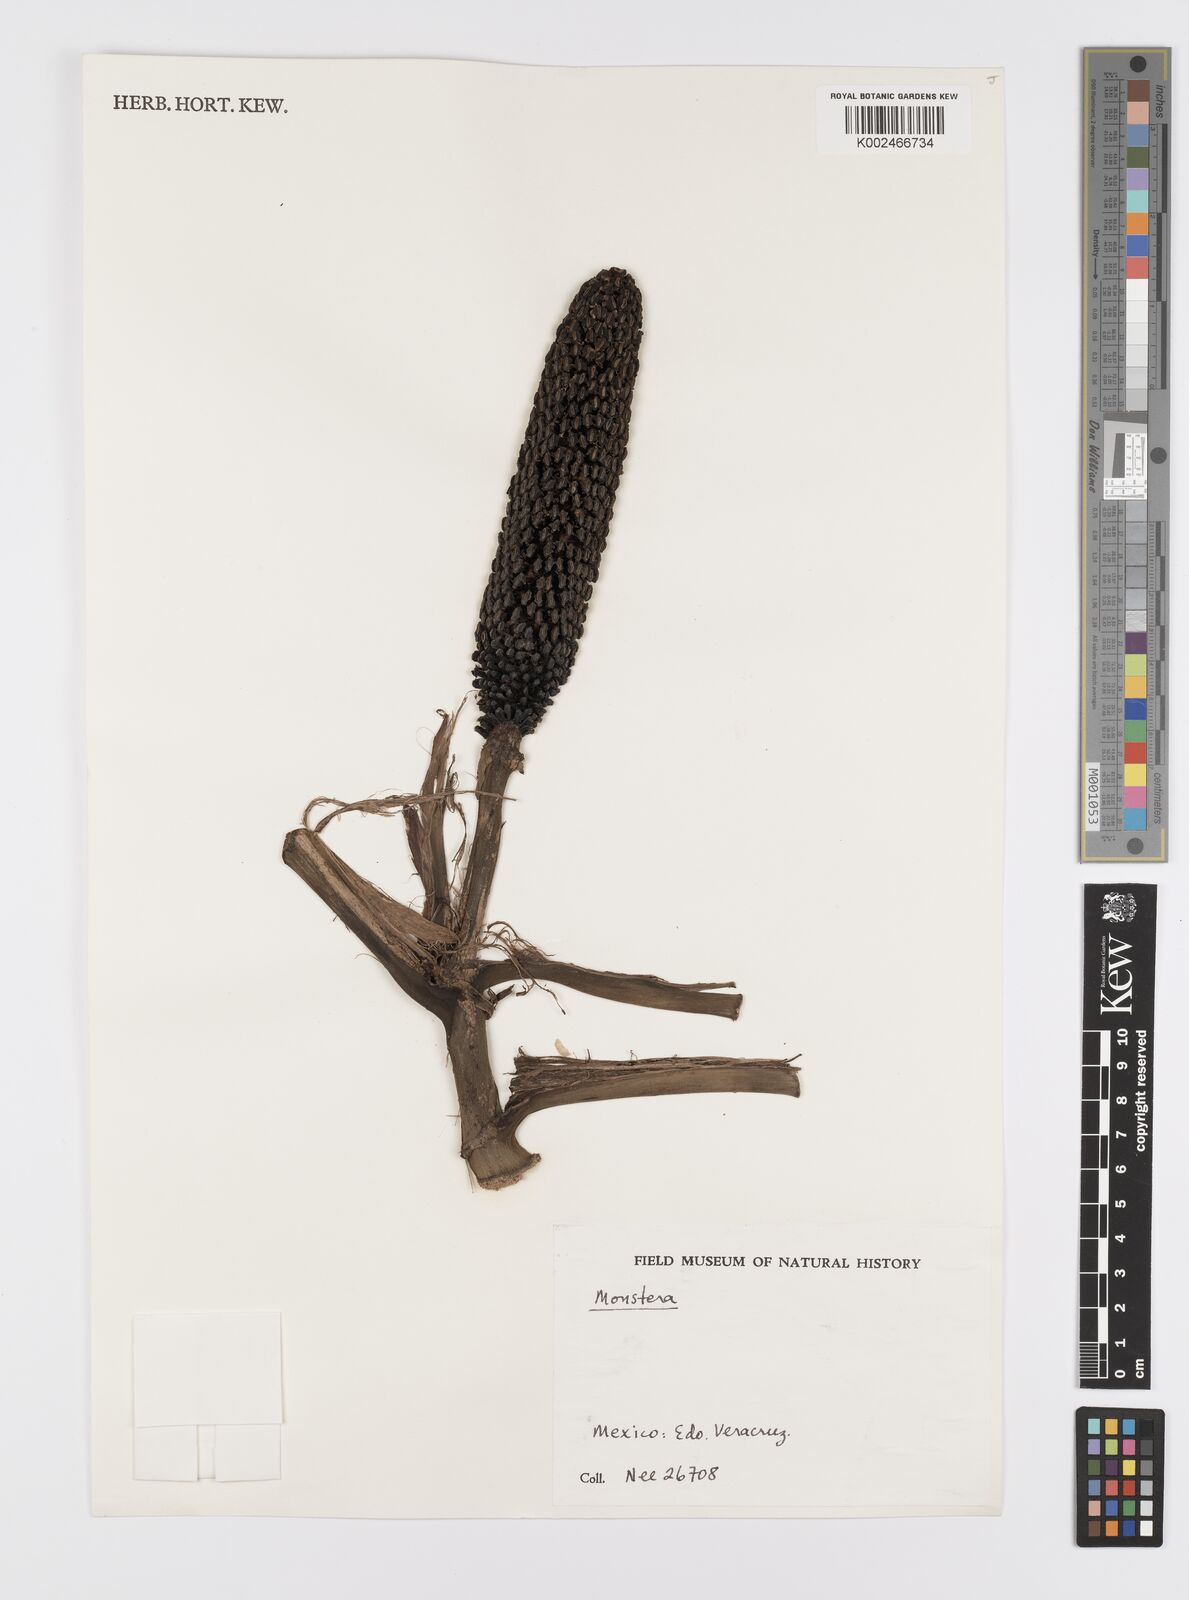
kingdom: Plantae
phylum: Tracheophyta
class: Liliopsida
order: Alismatales
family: Araceae
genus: Monstera
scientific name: Monstera acuminata
